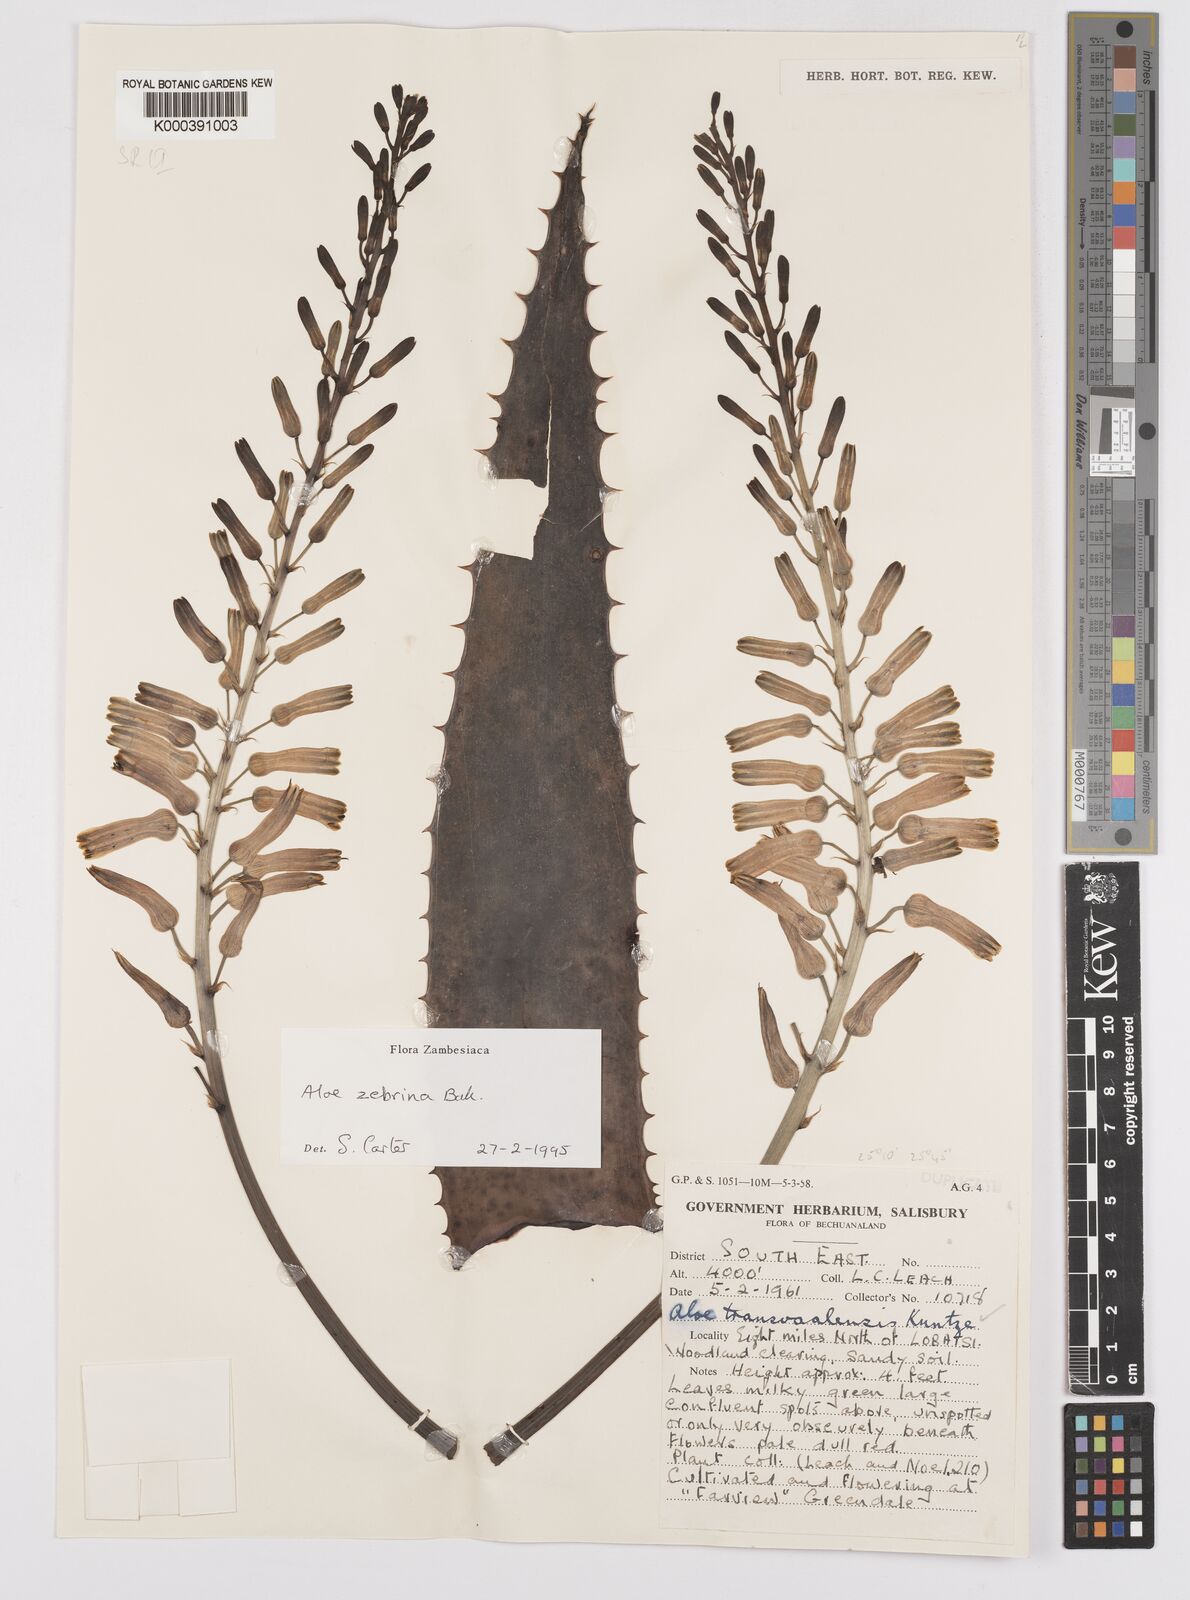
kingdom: Plantae
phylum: Tracheophyta
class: Liliopsida
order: Asparagales
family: Asphodelaceae
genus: Aloe
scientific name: Aloe zebrina
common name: Zebra-leaf aloe
